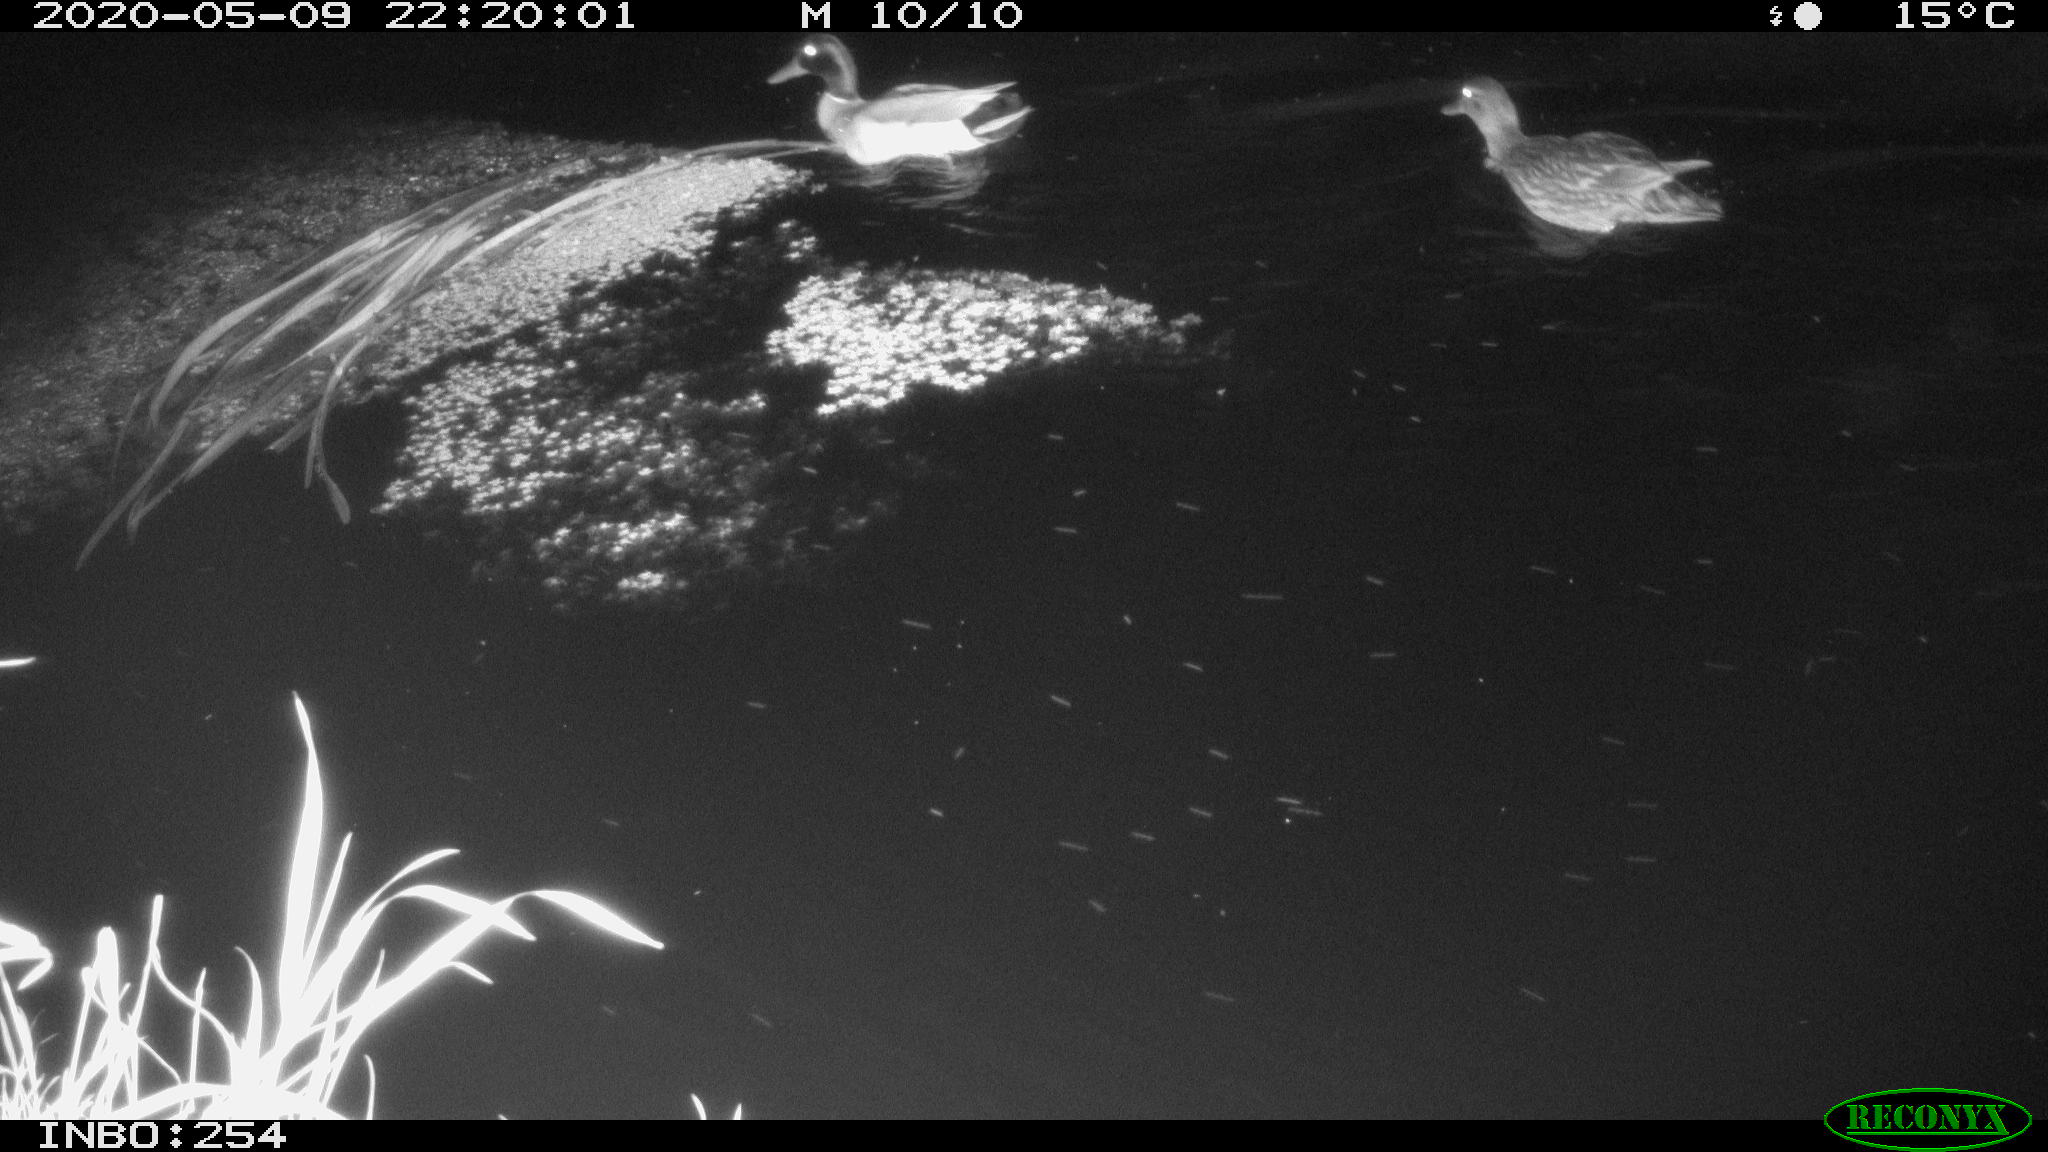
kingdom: Animalia
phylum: Chordata
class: Aves
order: Anseriformes
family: Anatidae
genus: Anas
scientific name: Anas platyrhynchos
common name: Mallard
